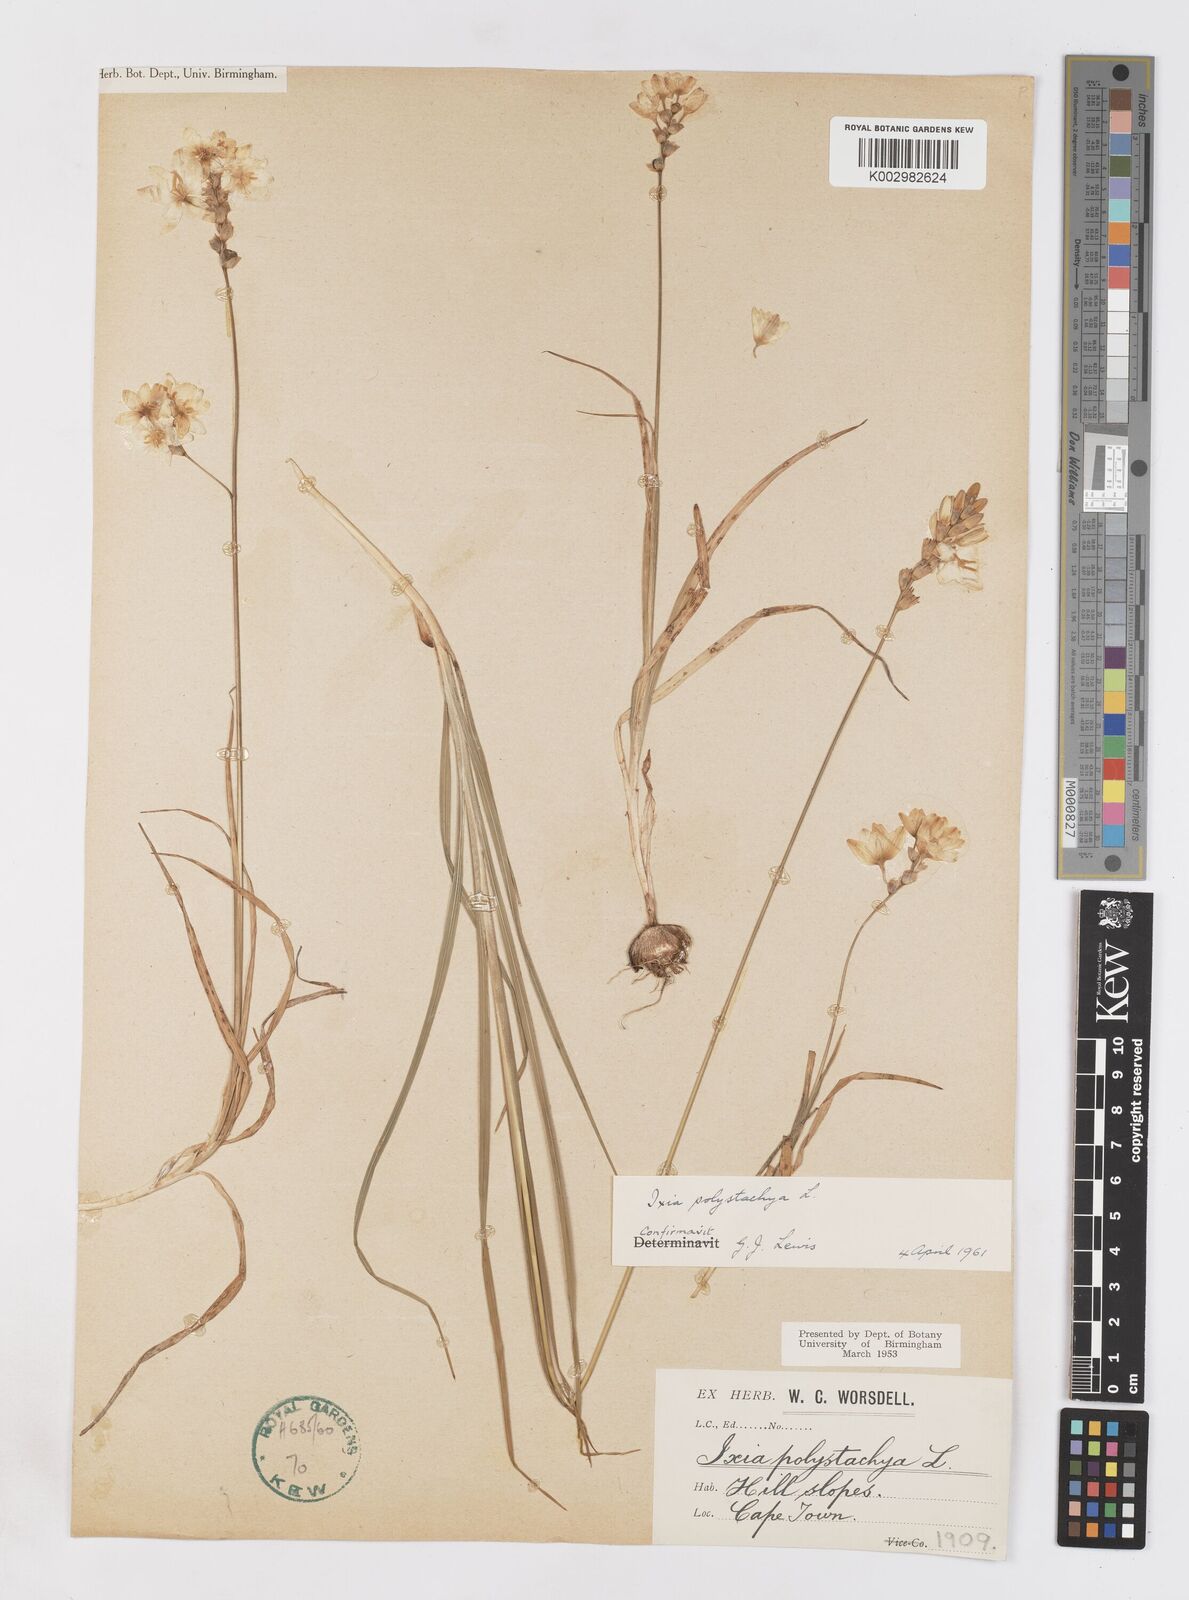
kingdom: Plantae
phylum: Tracheophyta
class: Liliopsida
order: Asparagales
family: Iridaceae
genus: Ixia
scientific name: Ixia polystachya
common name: White-and-yellow-flower cornlily
